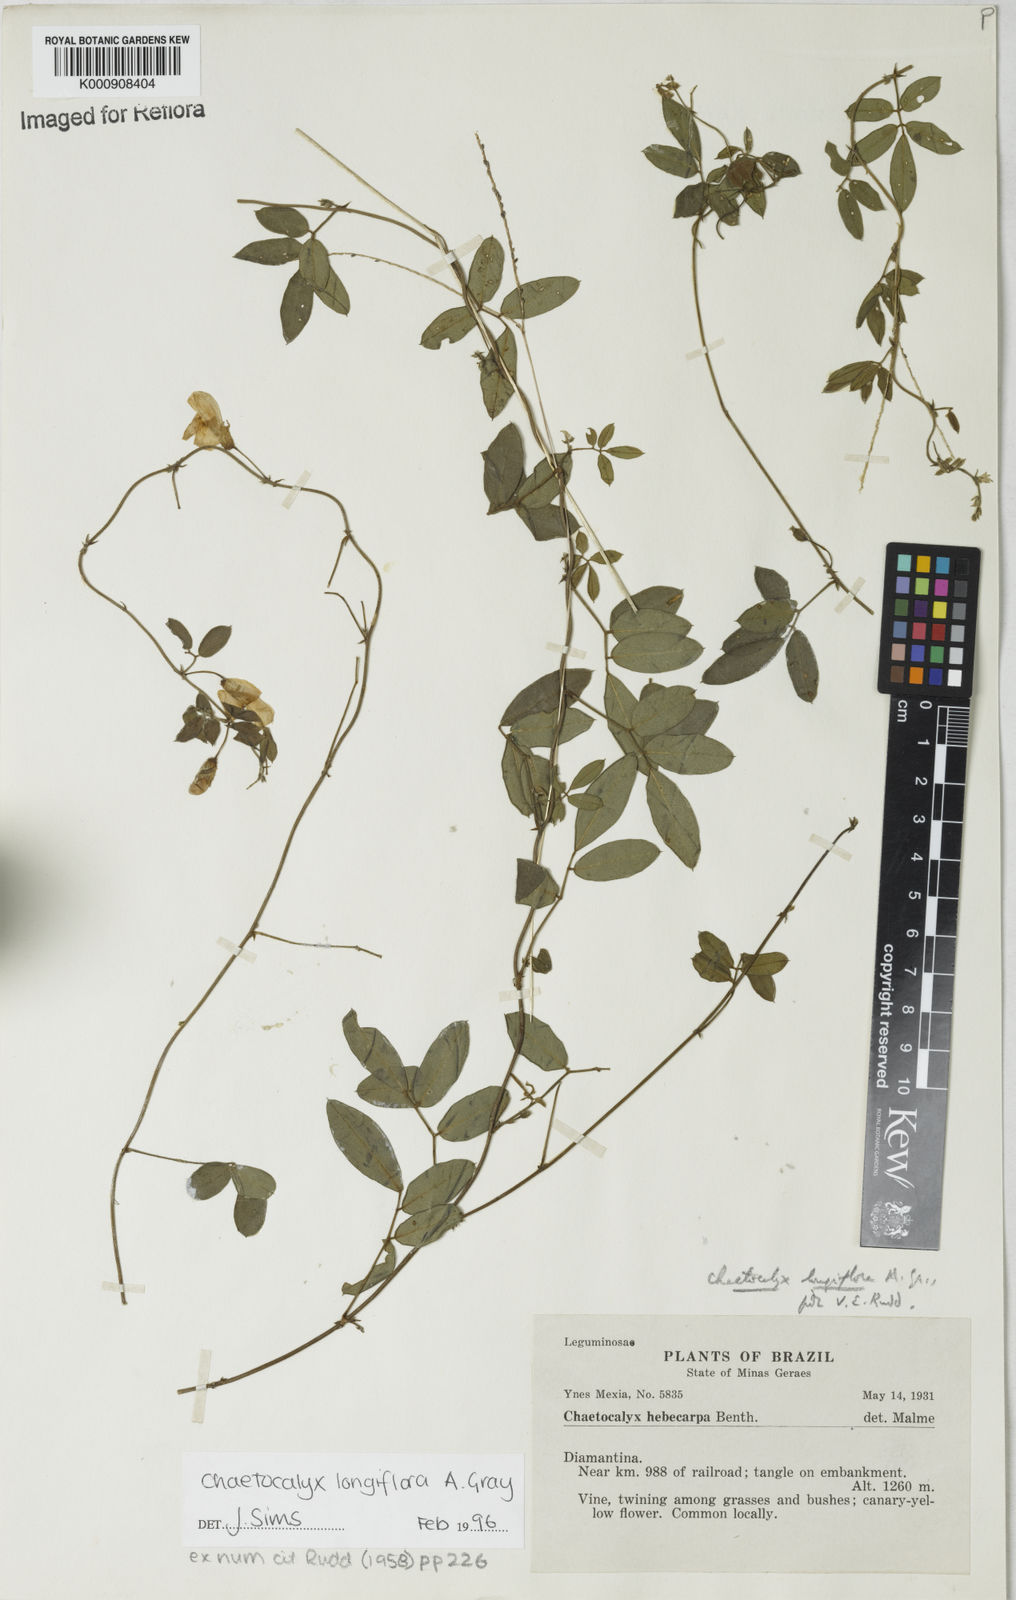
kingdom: Plantae
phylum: Tracheophyta
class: Magnoliopsida
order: Fabales
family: Fabaceae
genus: Nissolia
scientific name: Nissolia longiflora
